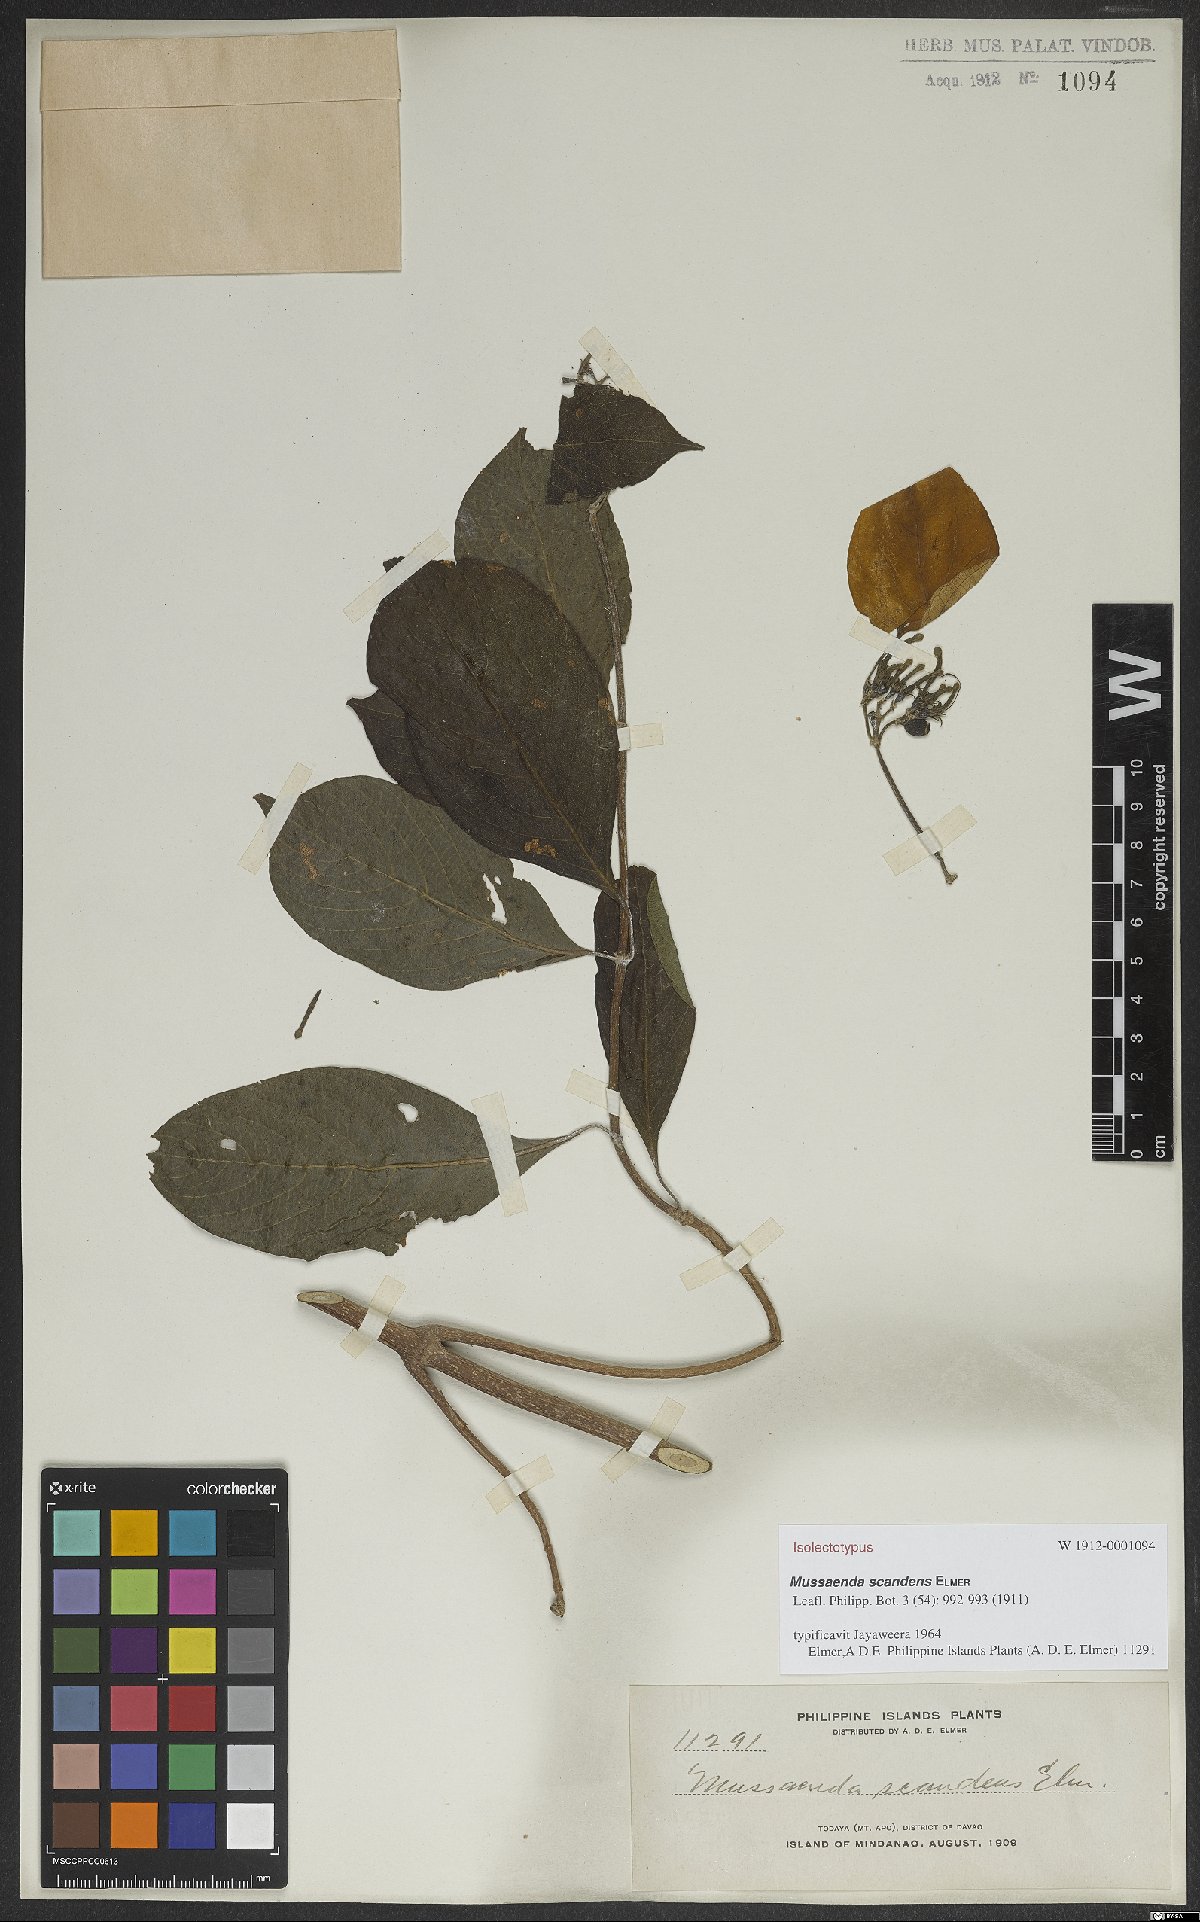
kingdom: Plantae
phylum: Tracheophyta
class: Magnoliopsida
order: Gentianales
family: Rubiaceae
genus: Mussaenda
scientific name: Mussaenda scandens
